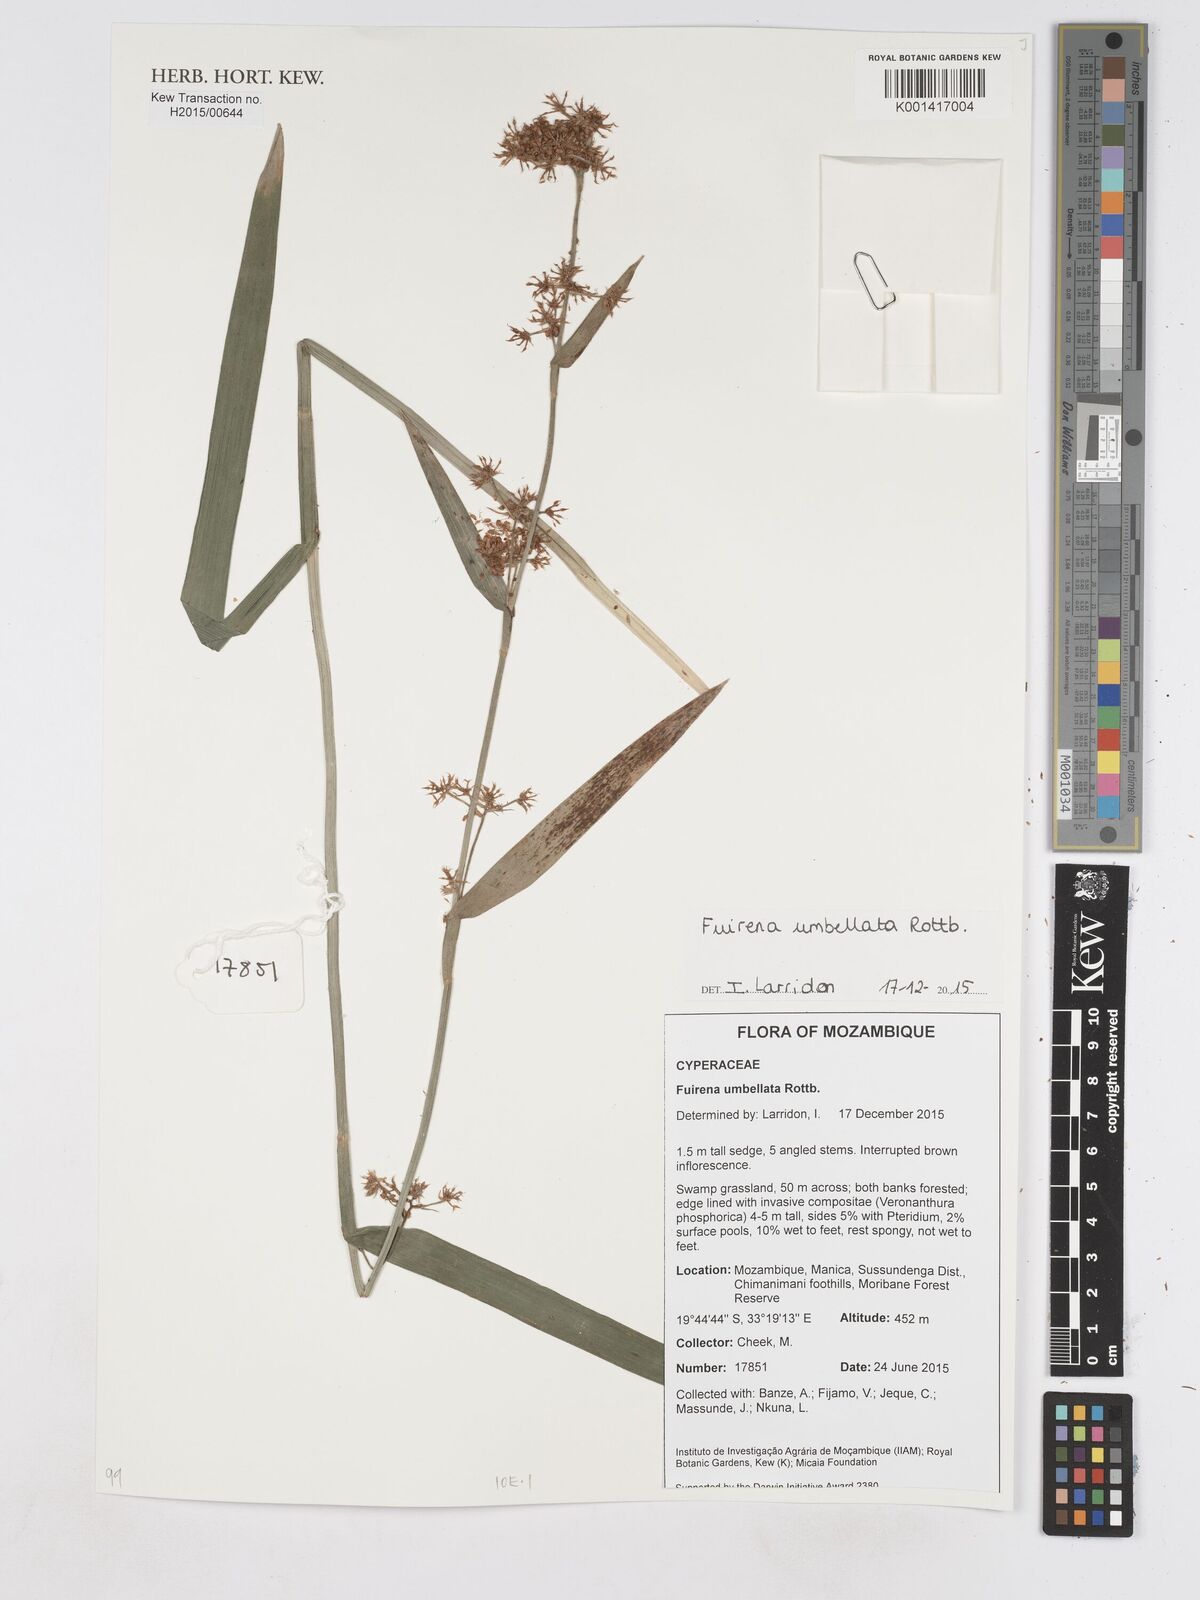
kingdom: Plantae
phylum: Tracheophyta
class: Liliopsida
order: Poales
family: Cyperaceae
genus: Fuirena
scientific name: Fuirena umbellata
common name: Yefen
